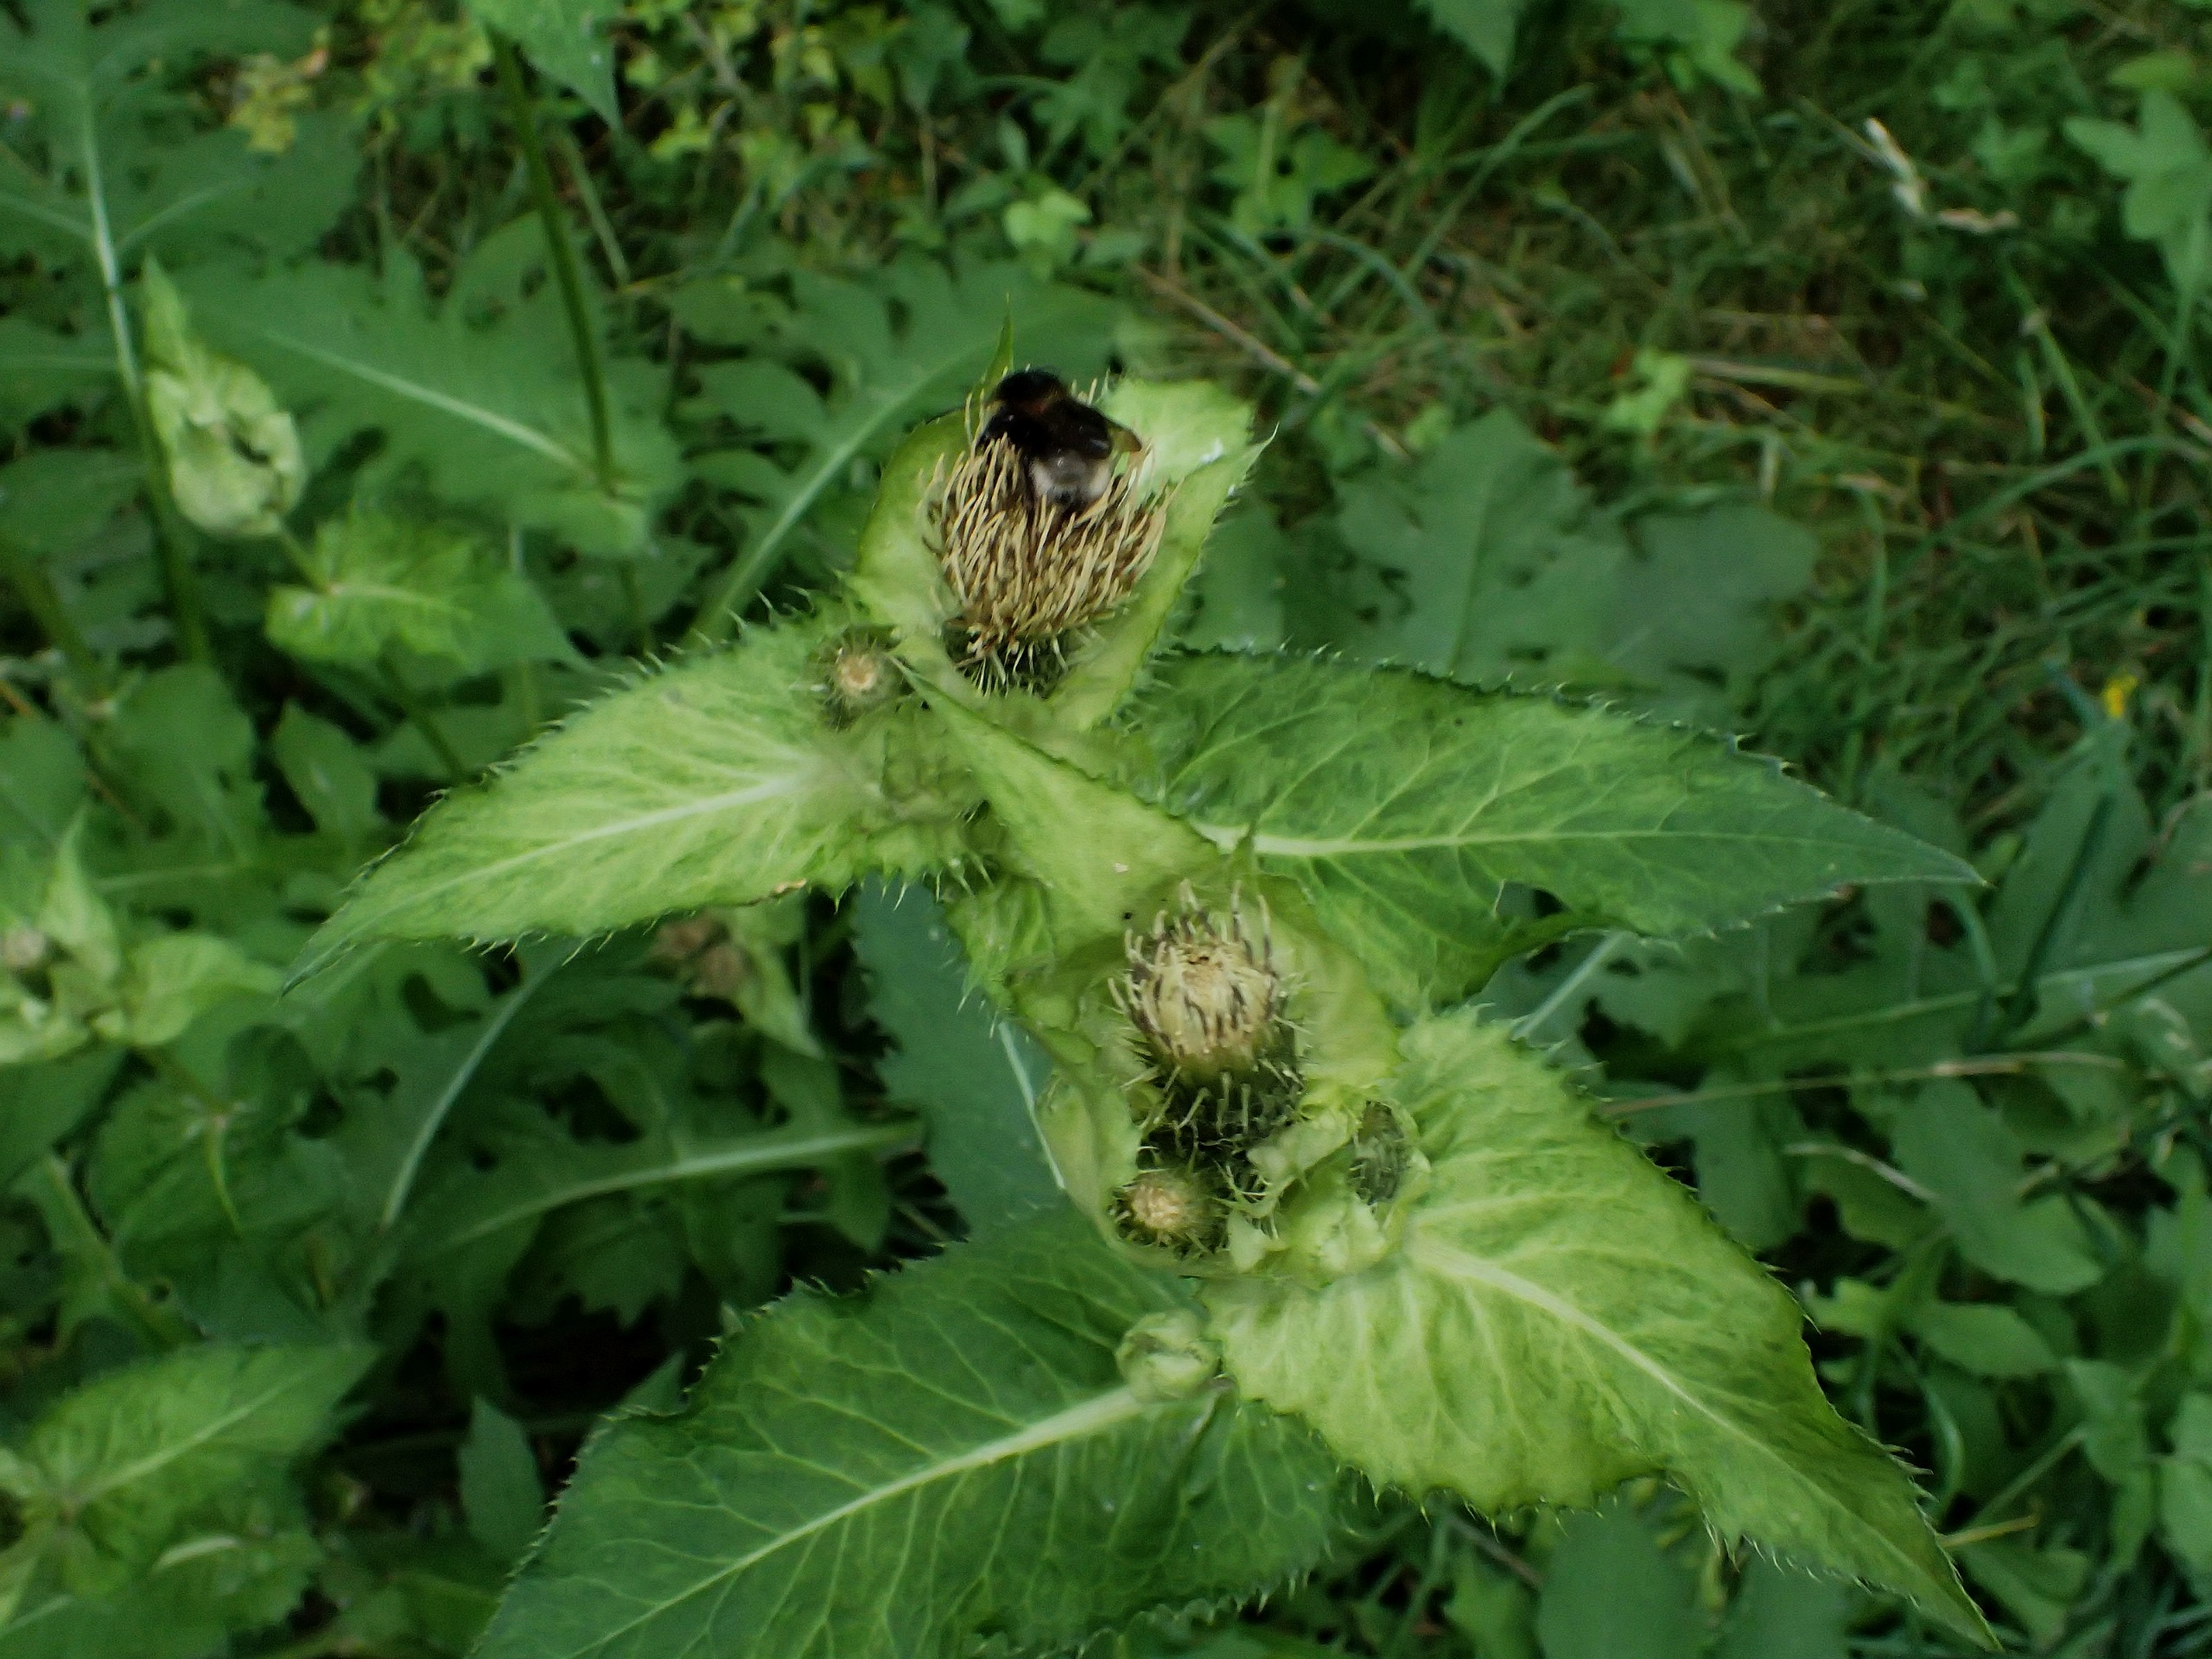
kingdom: Plantae
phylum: Tracheophyta
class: Magnoliopsida
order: Asterales
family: Asteraceae
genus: Cirsium
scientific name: Cirsium oleraceum
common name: Kål-tidsel
